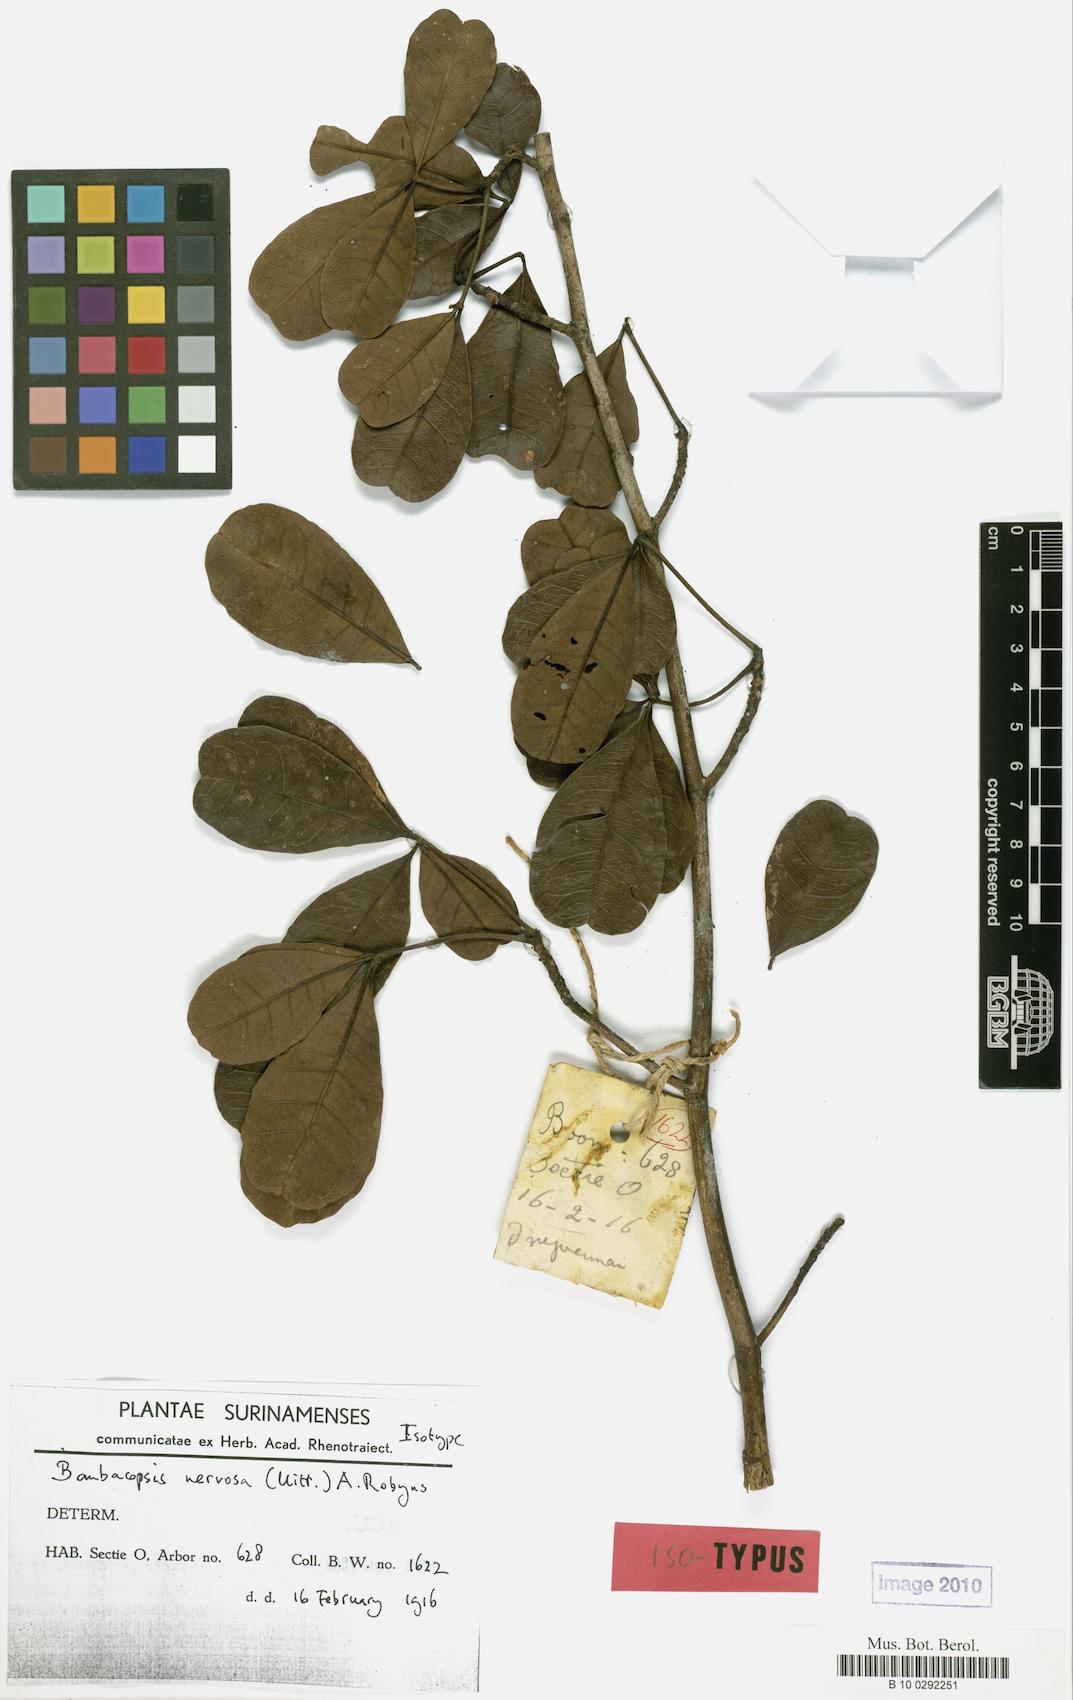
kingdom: Plantae
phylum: Tracheophyta
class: Magnoliopsida
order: Malvales
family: Malvaceae
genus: Pachira
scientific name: Pachira nervosa
